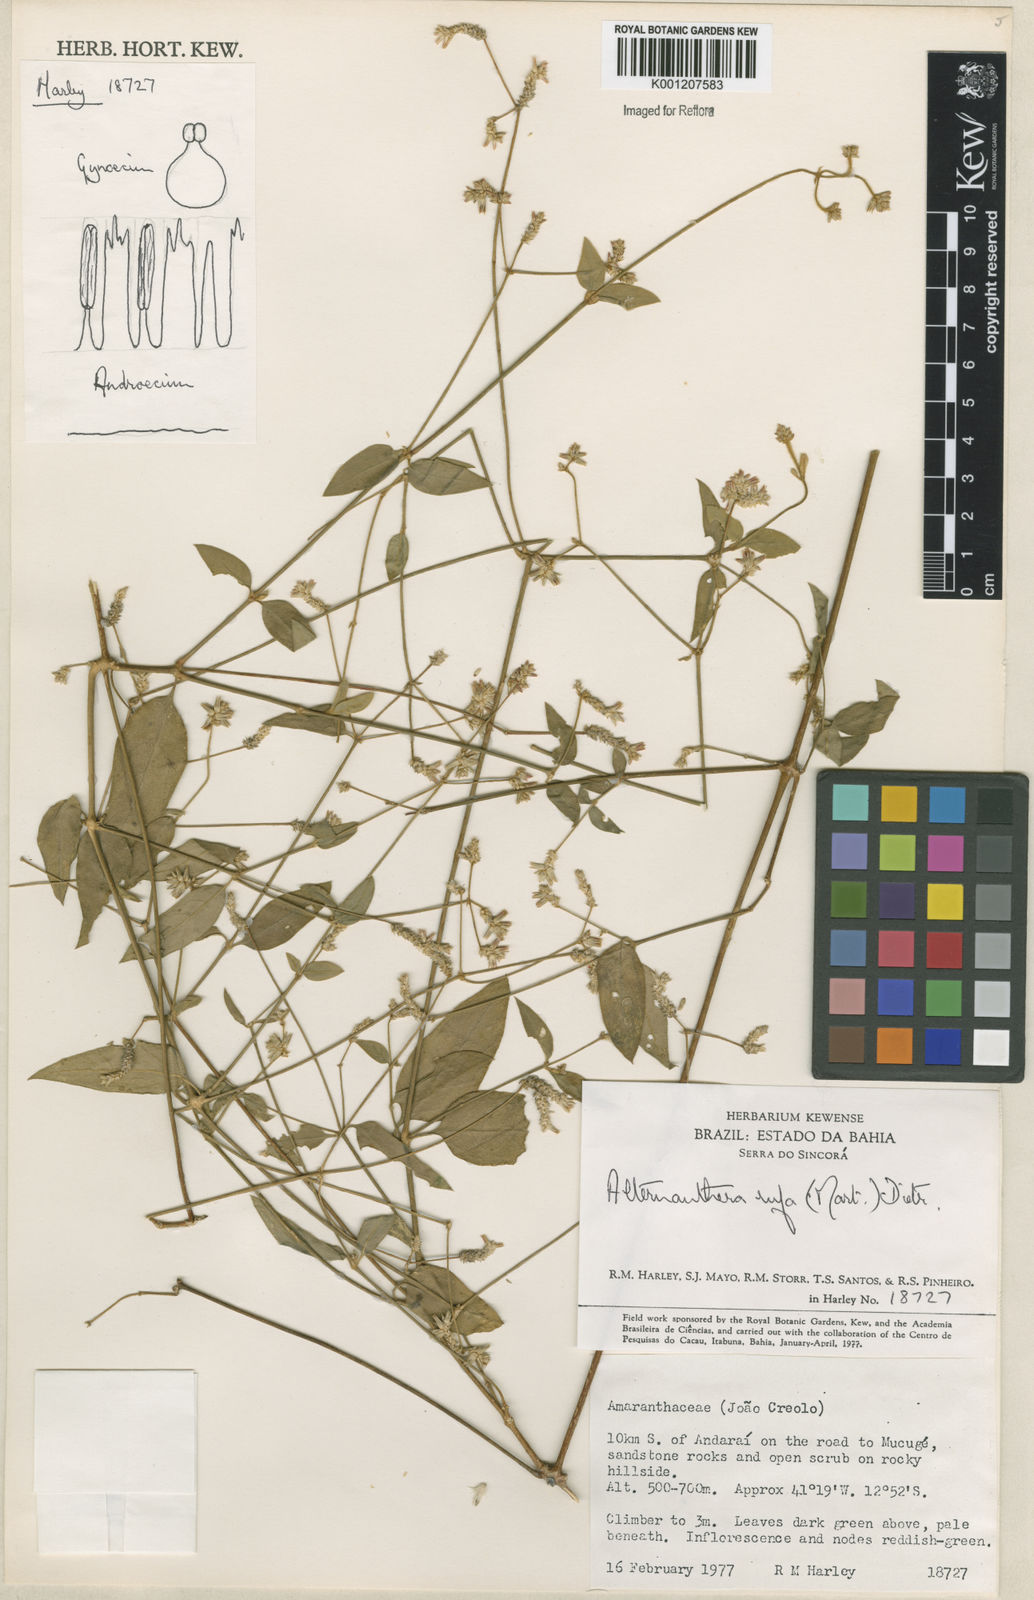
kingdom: Plantae
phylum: Tracheophyta
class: Magnoliopsida
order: Caryophyllales
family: Amaranthaceae
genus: Alternanthera
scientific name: Alternanthera rufa
